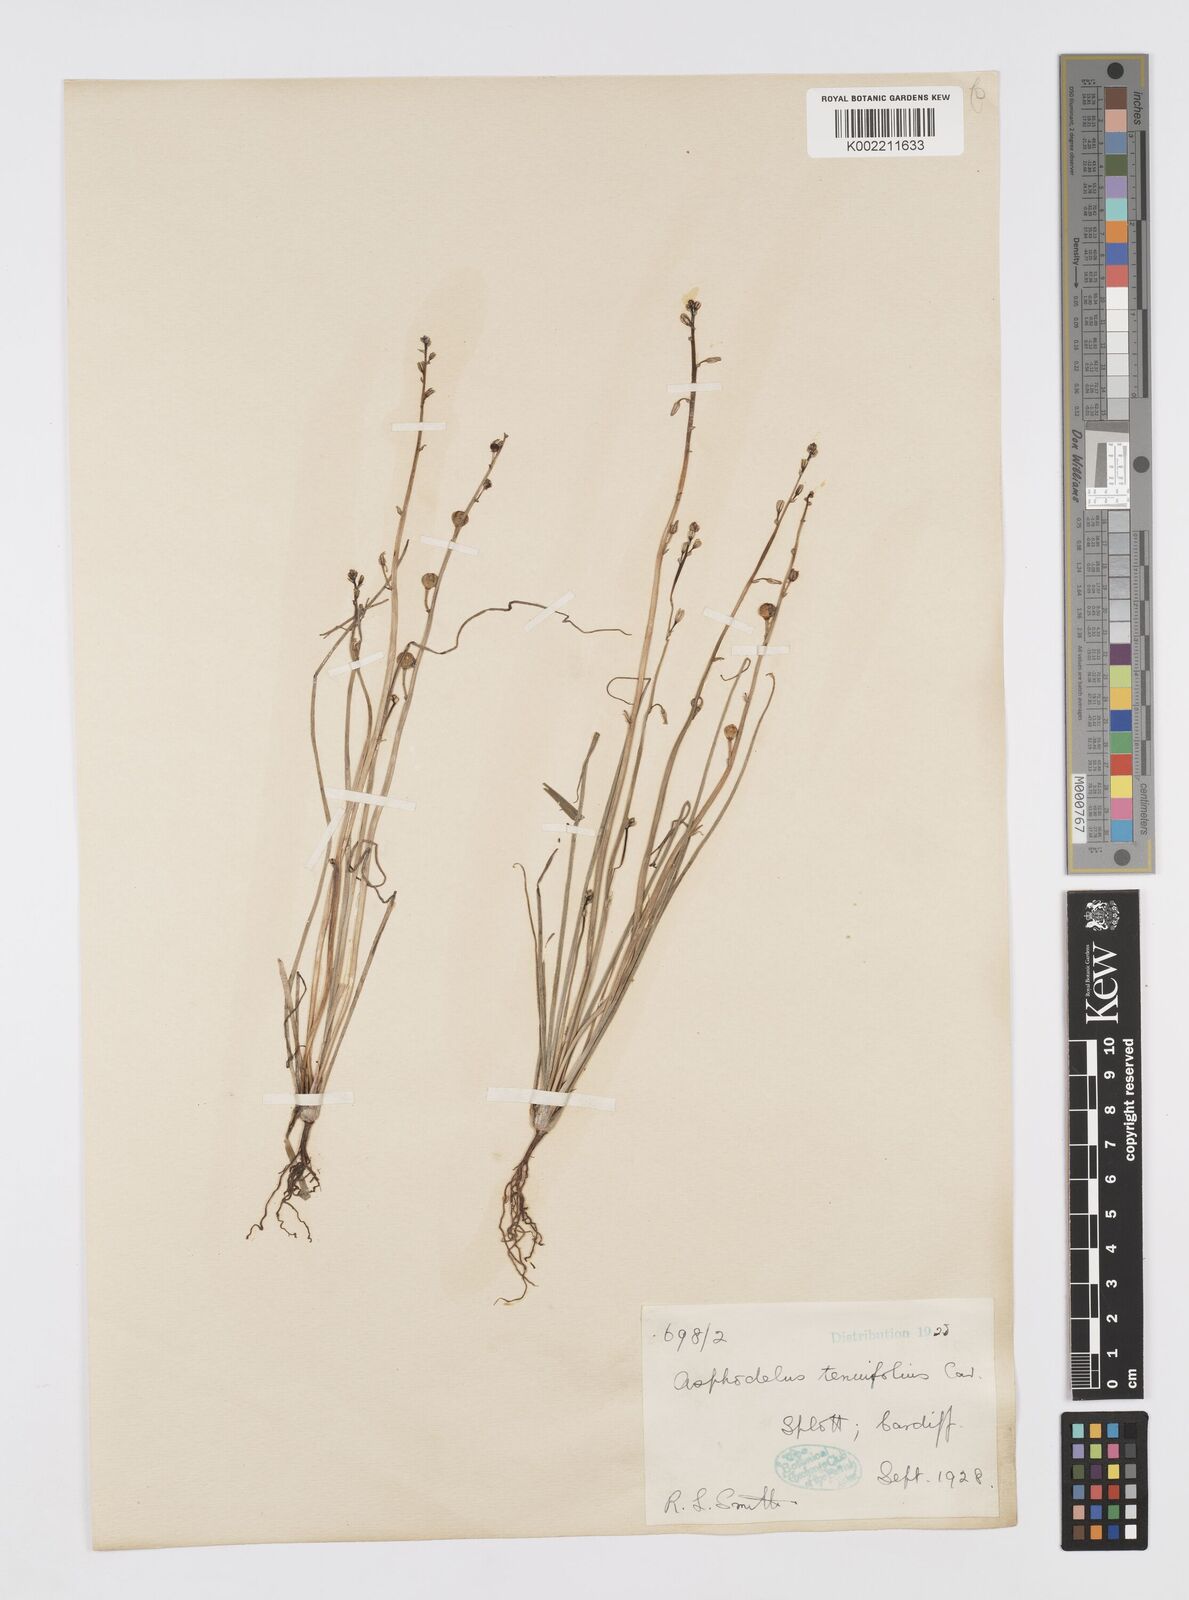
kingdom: Plantae
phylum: Tracheophyta
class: Liliopsida
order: Asparagales
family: Asphodelaceae
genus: Asphodelus
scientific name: Asphodelus tenuifolius
